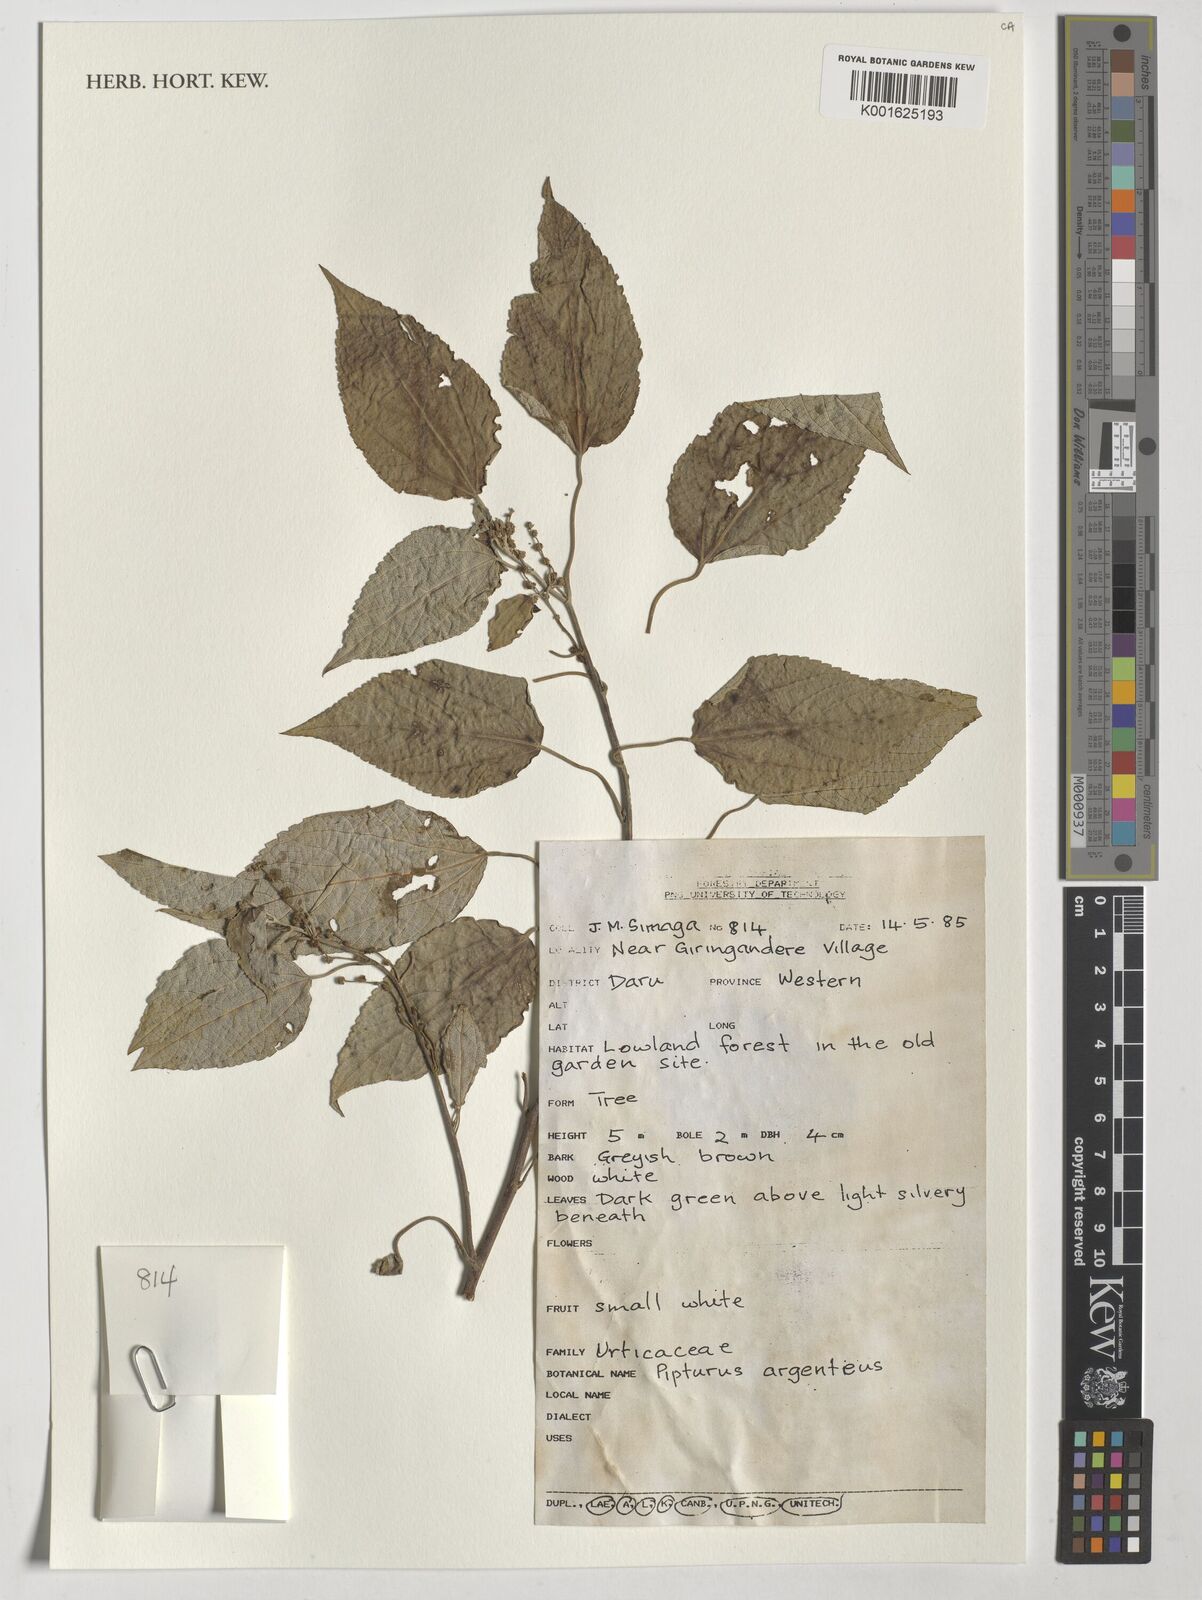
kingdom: Plantae
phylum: Tracheophyta
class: Magnoliopsida
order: Rosales
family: Urticaceae
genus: Pipturus
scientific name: Pipturus argenteus
